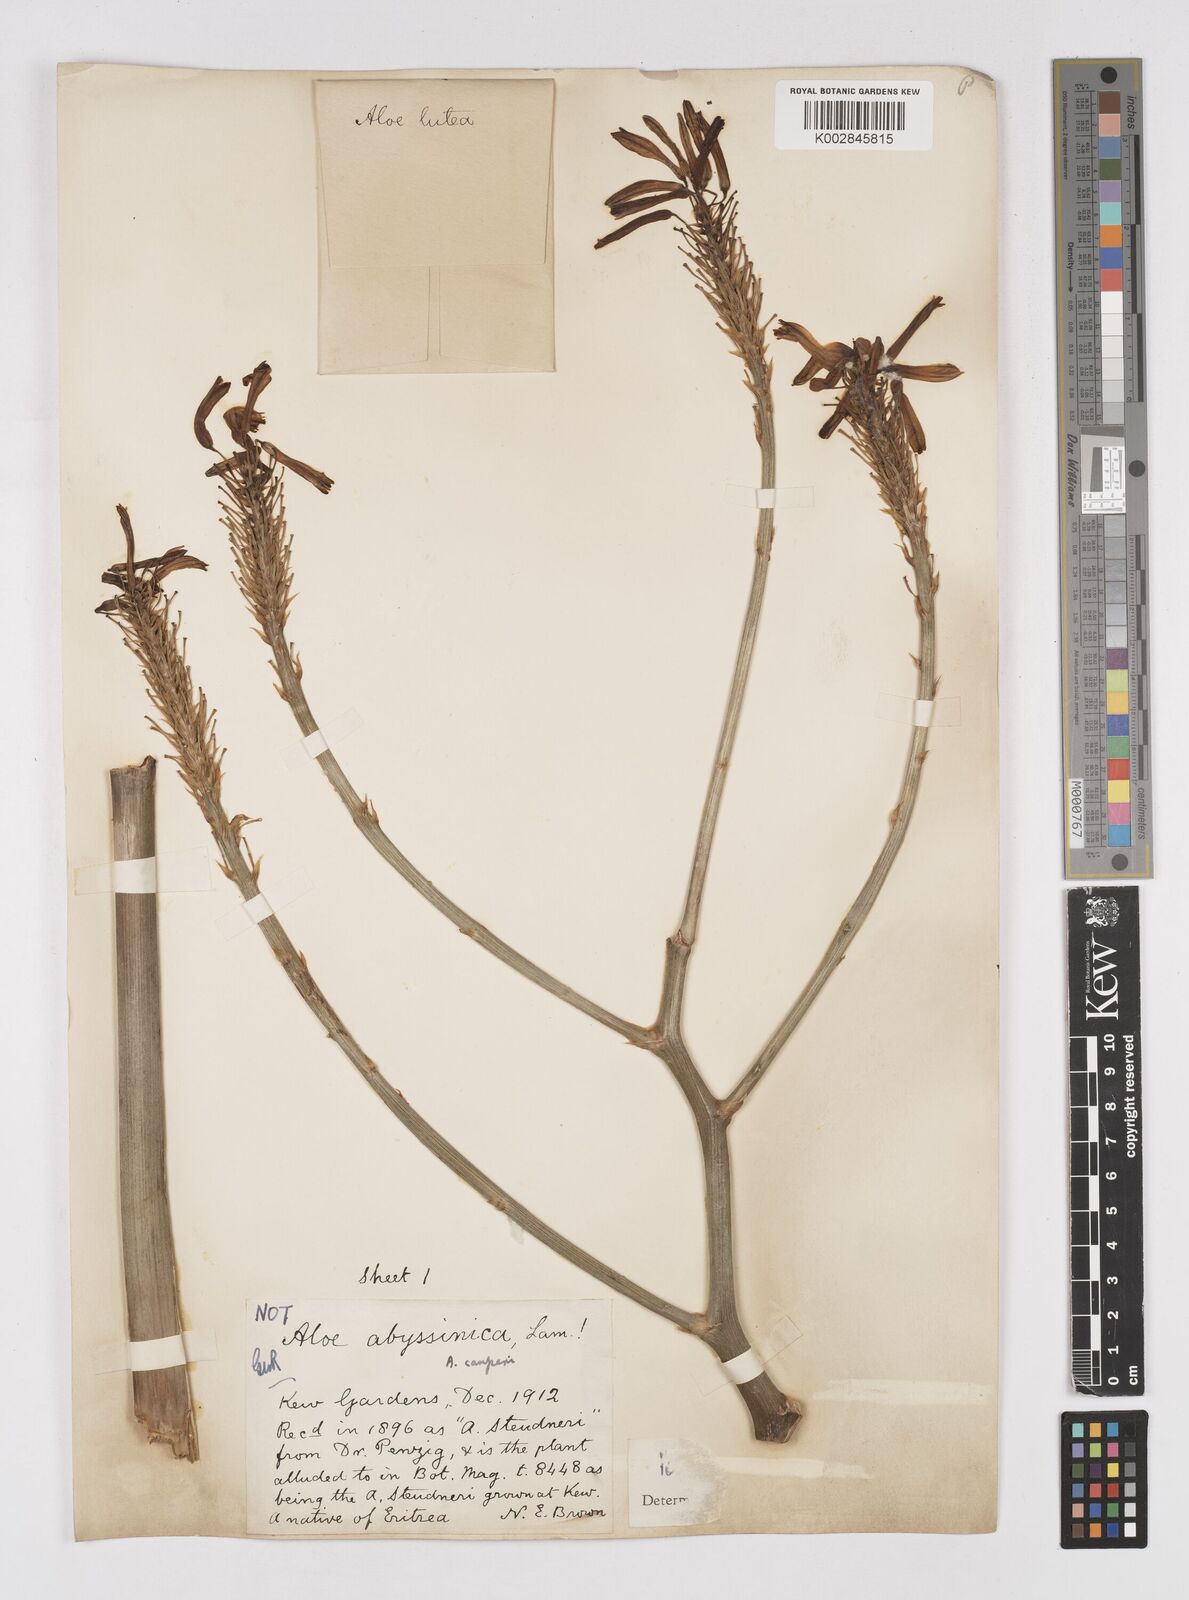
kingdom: Plantae
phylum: Tracheophyta
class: Liliopsida
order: Asparagales
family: Asphodelaceae
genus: Aloe
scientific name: Aloe camperi
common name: Camper's aloe
